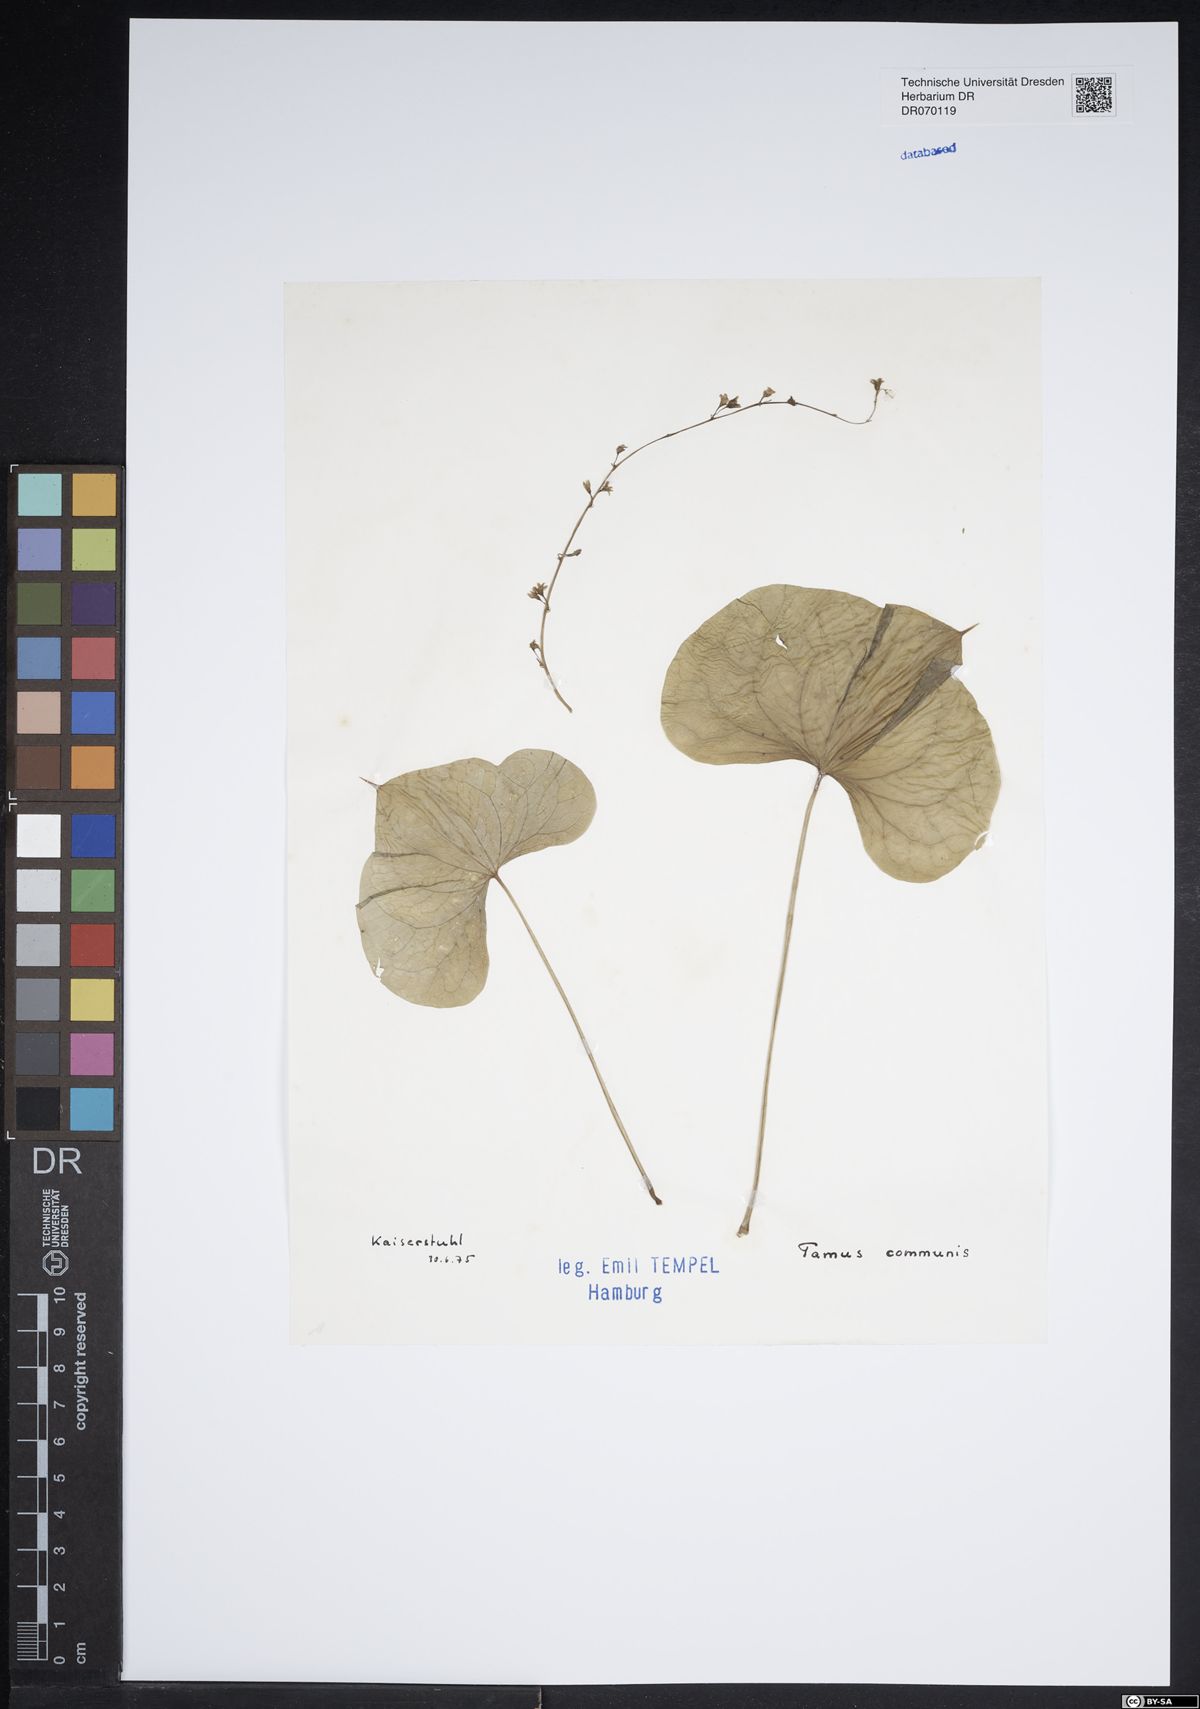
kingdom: Plantae
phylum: Tracheophyta
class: Liliopsida
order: Dioscoreales
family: Dioscoreaceae
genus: Dioscorea
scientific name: Dioscorea communis
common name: Black-bindweed
